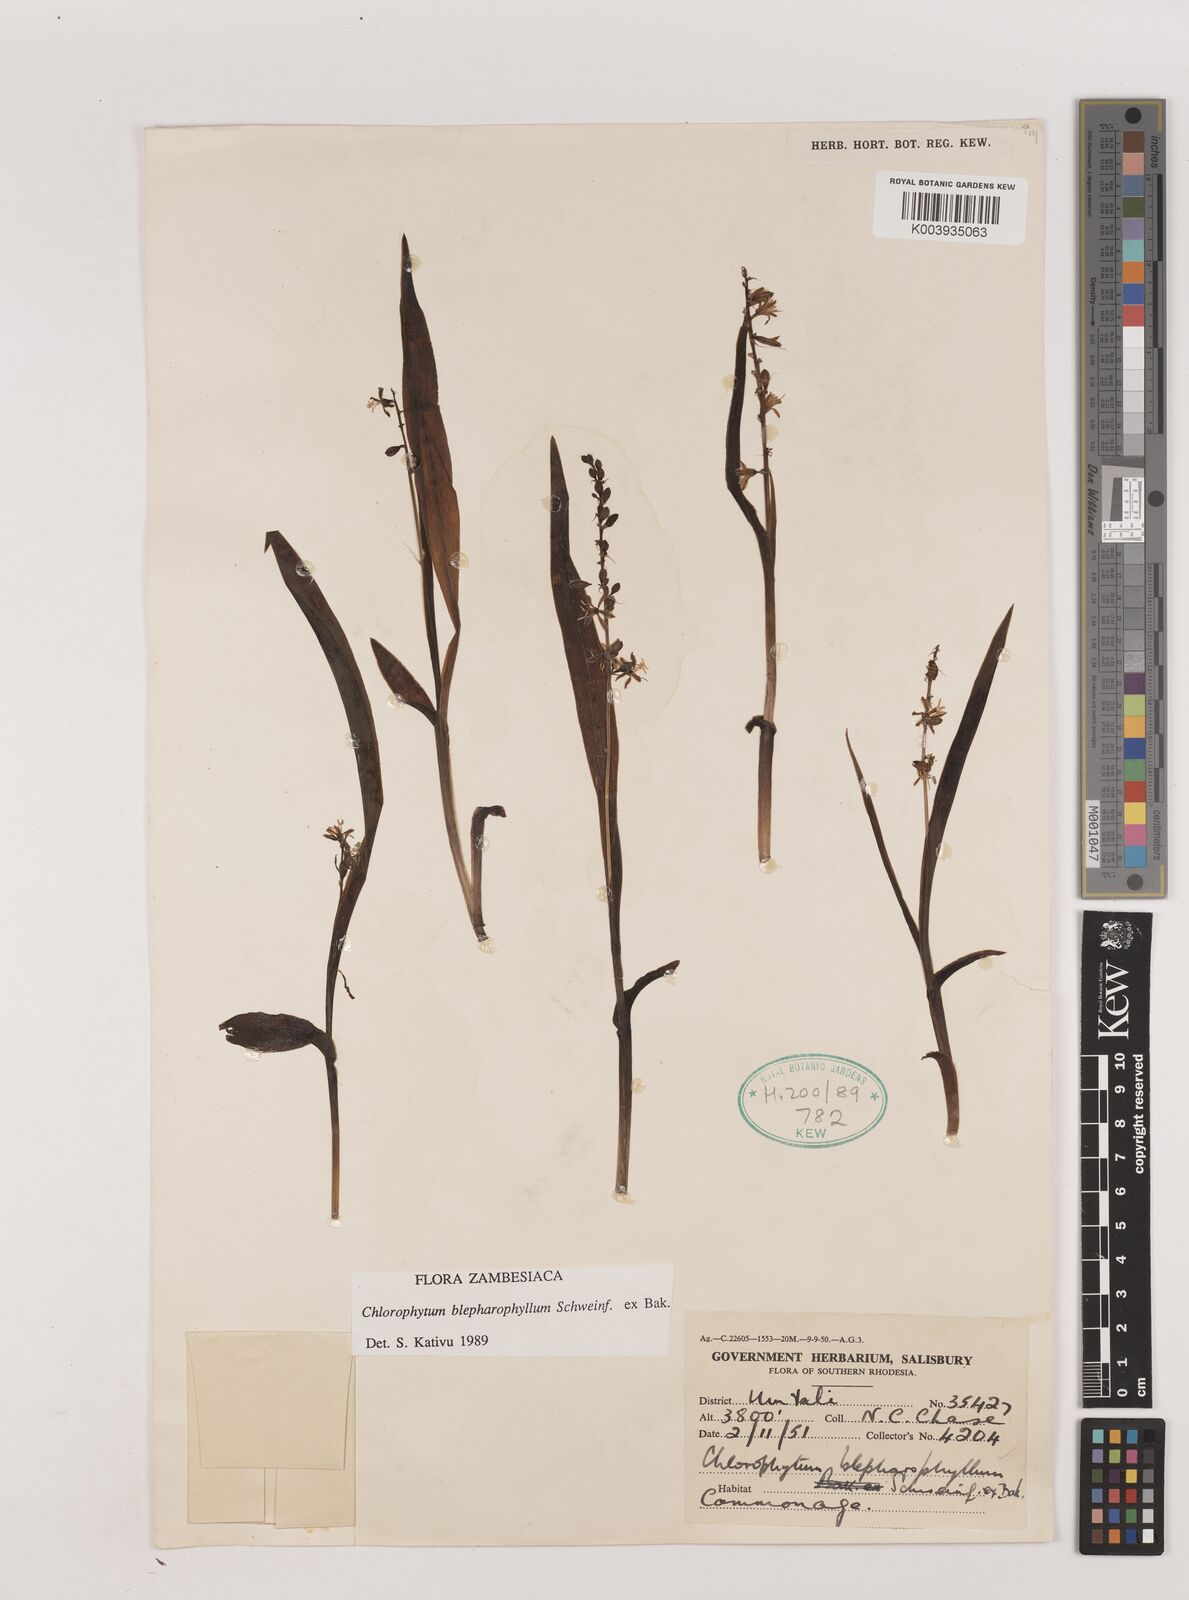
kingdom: Plantae
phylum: Tracheophyta
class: Liliopsida
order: Asparagales
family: Asparagaceae
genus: Chlorophytum
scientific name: Chlorophytum blepharophyllum
